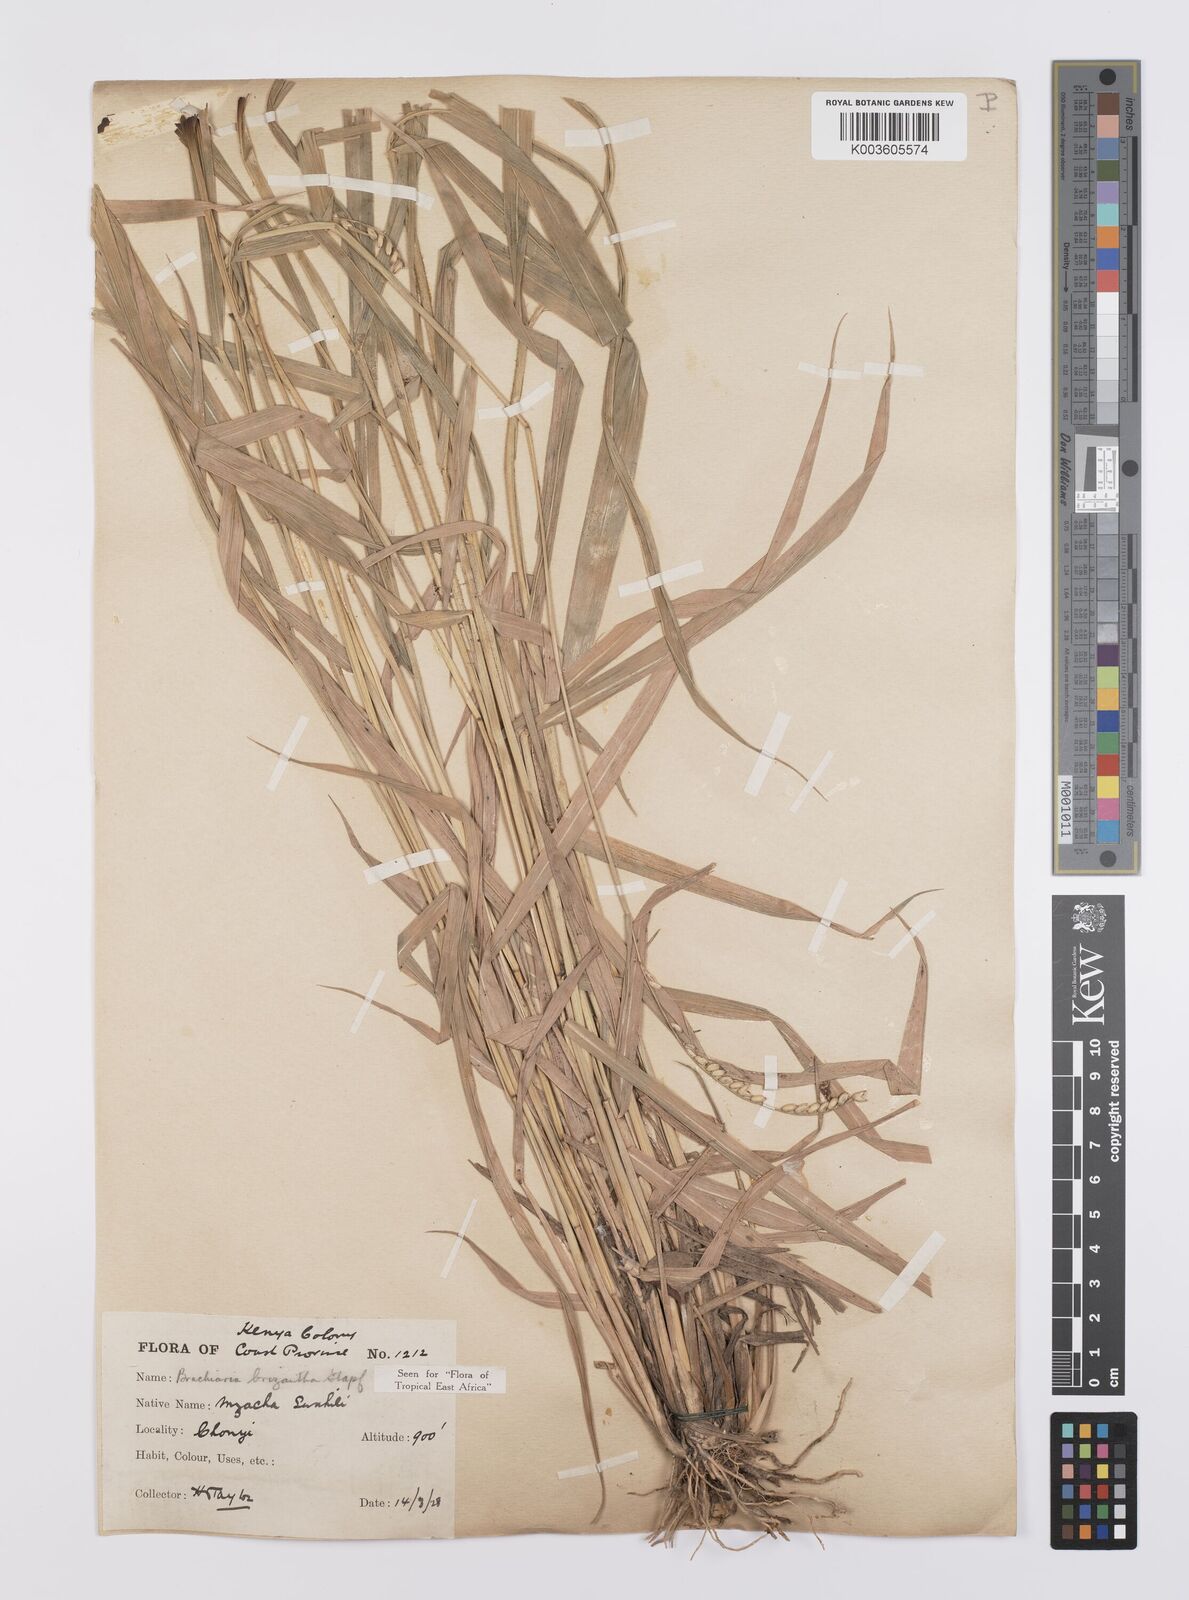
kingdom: Plantae
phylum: Tracheophyta
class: Liliopsida
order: Poales
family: Poaceae
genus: Urochloa
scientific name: Urochloa brizantha
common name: Palisade signalgrass
